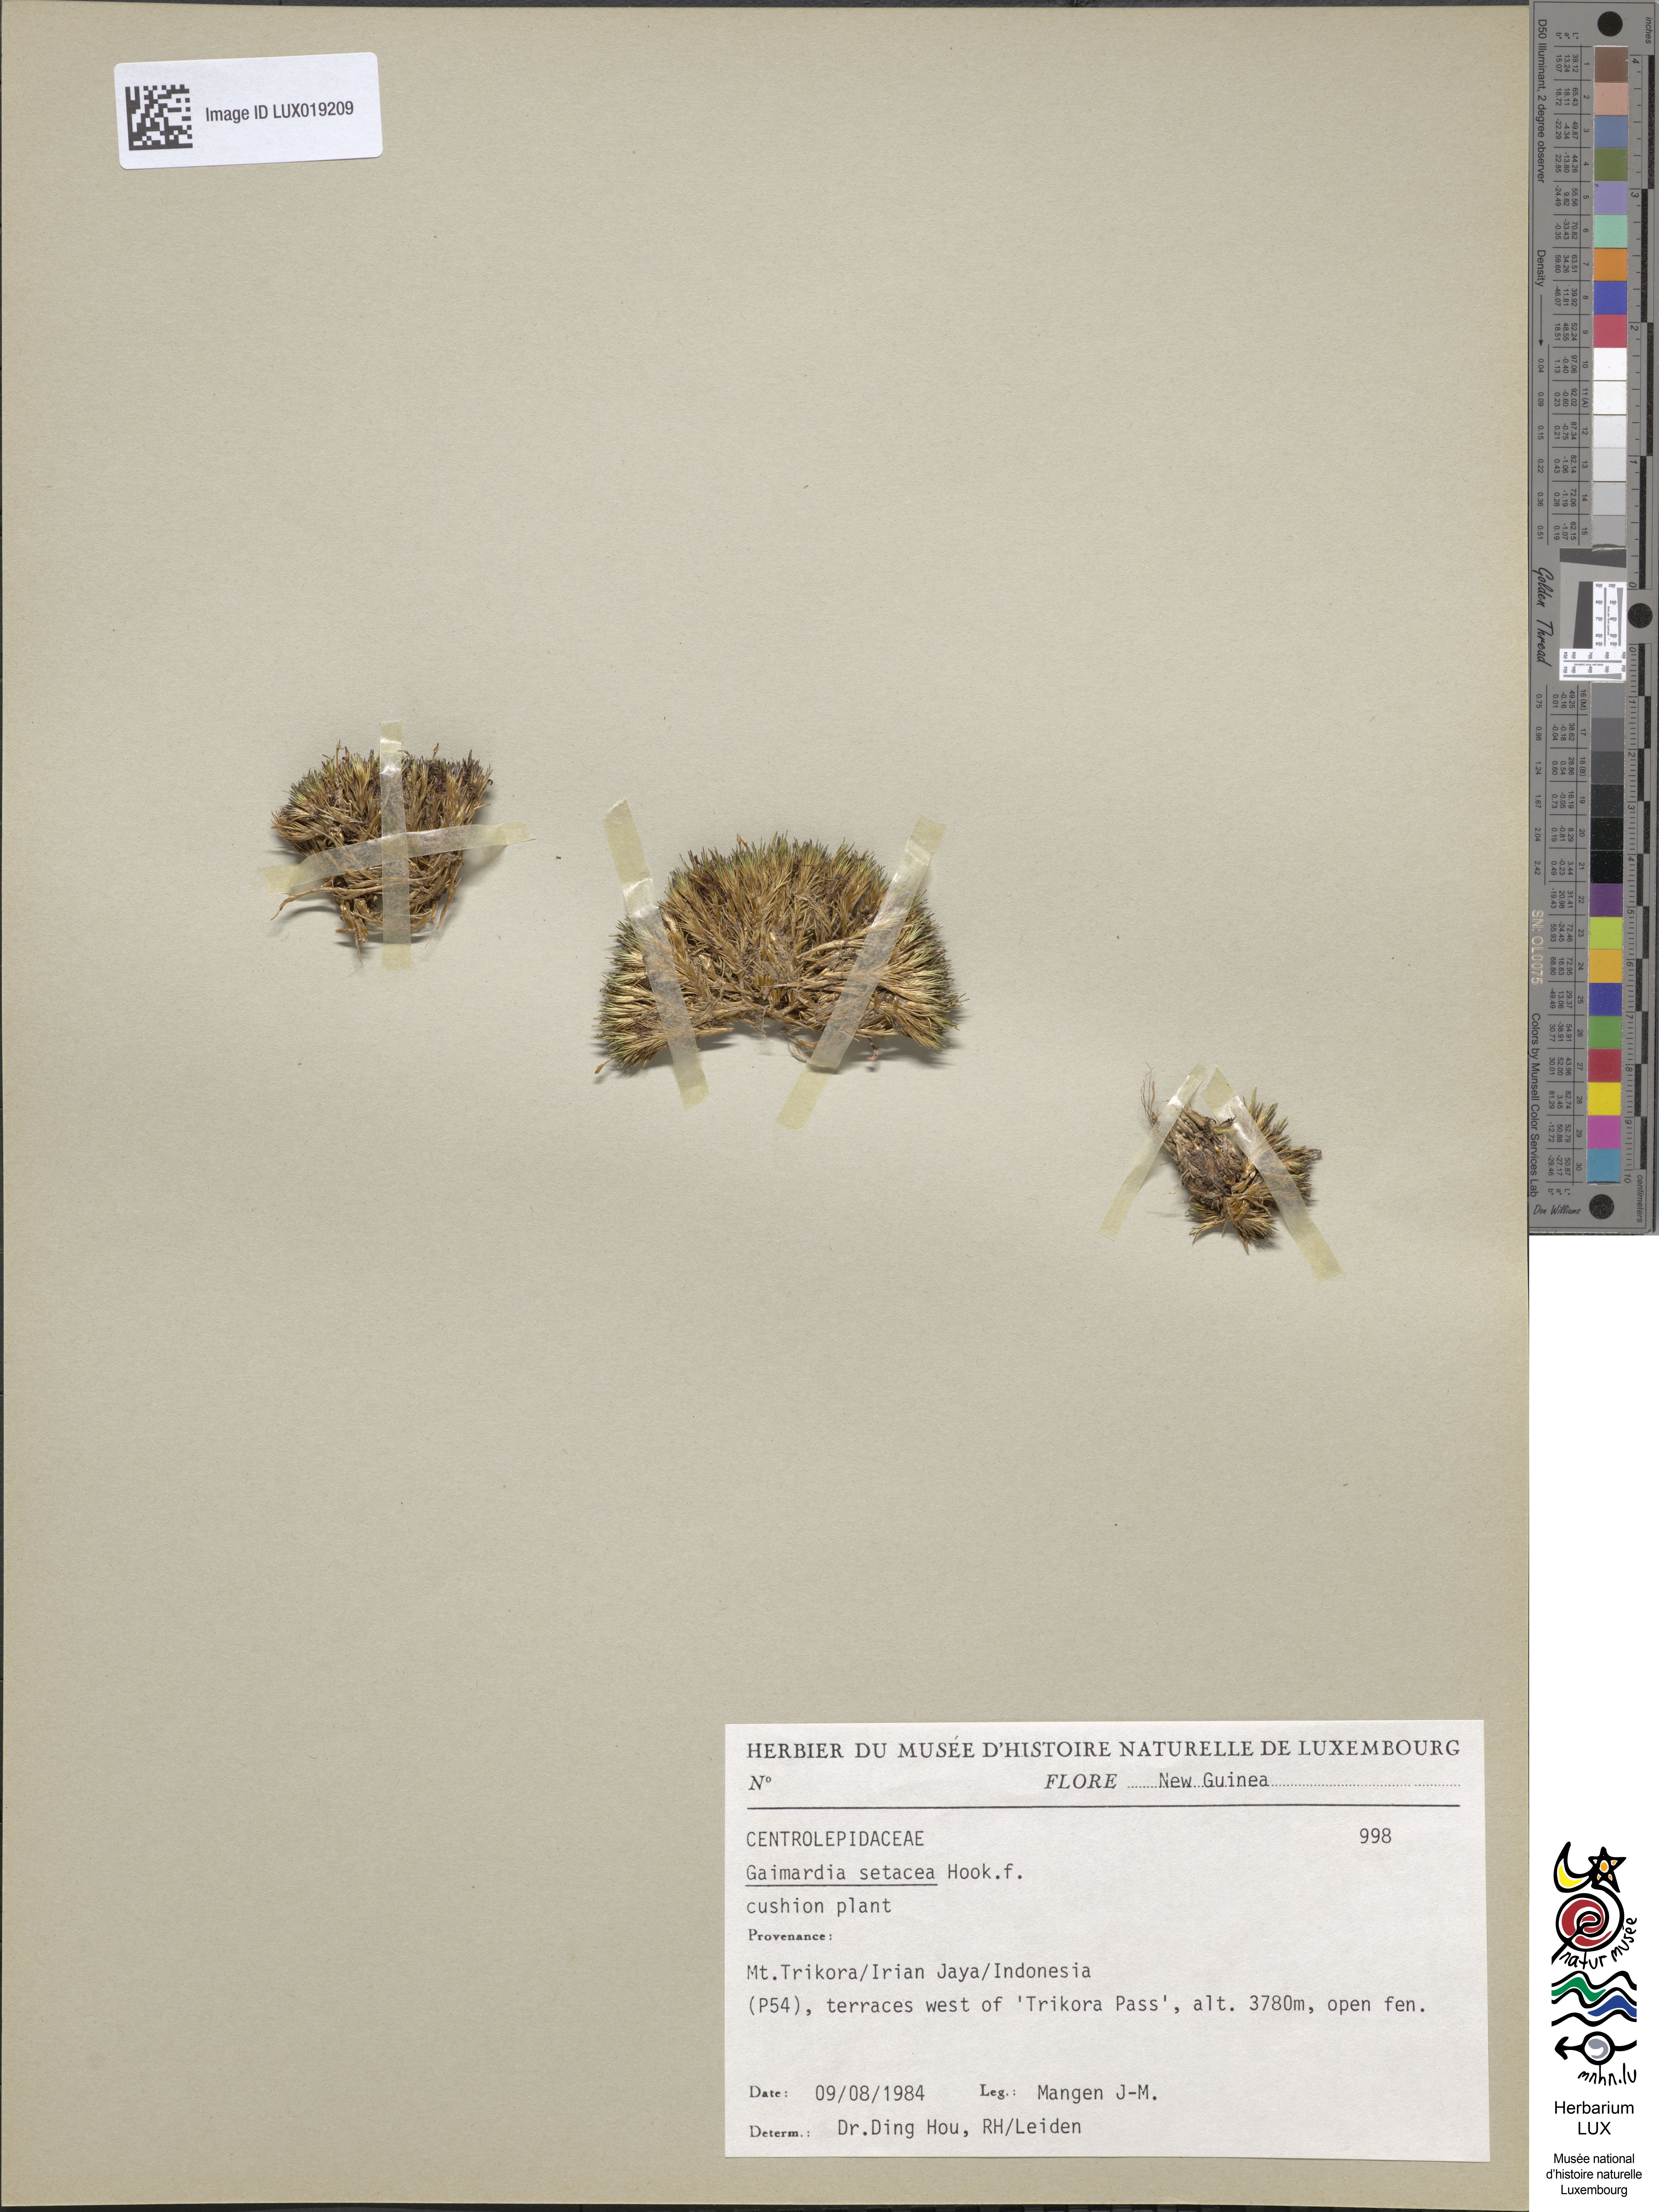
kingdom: Plantae
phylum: Tracheophyta
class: Liliopsida
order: Poales
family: Restionaceae
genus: Gaimardia
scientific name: Gaimardia setacea
